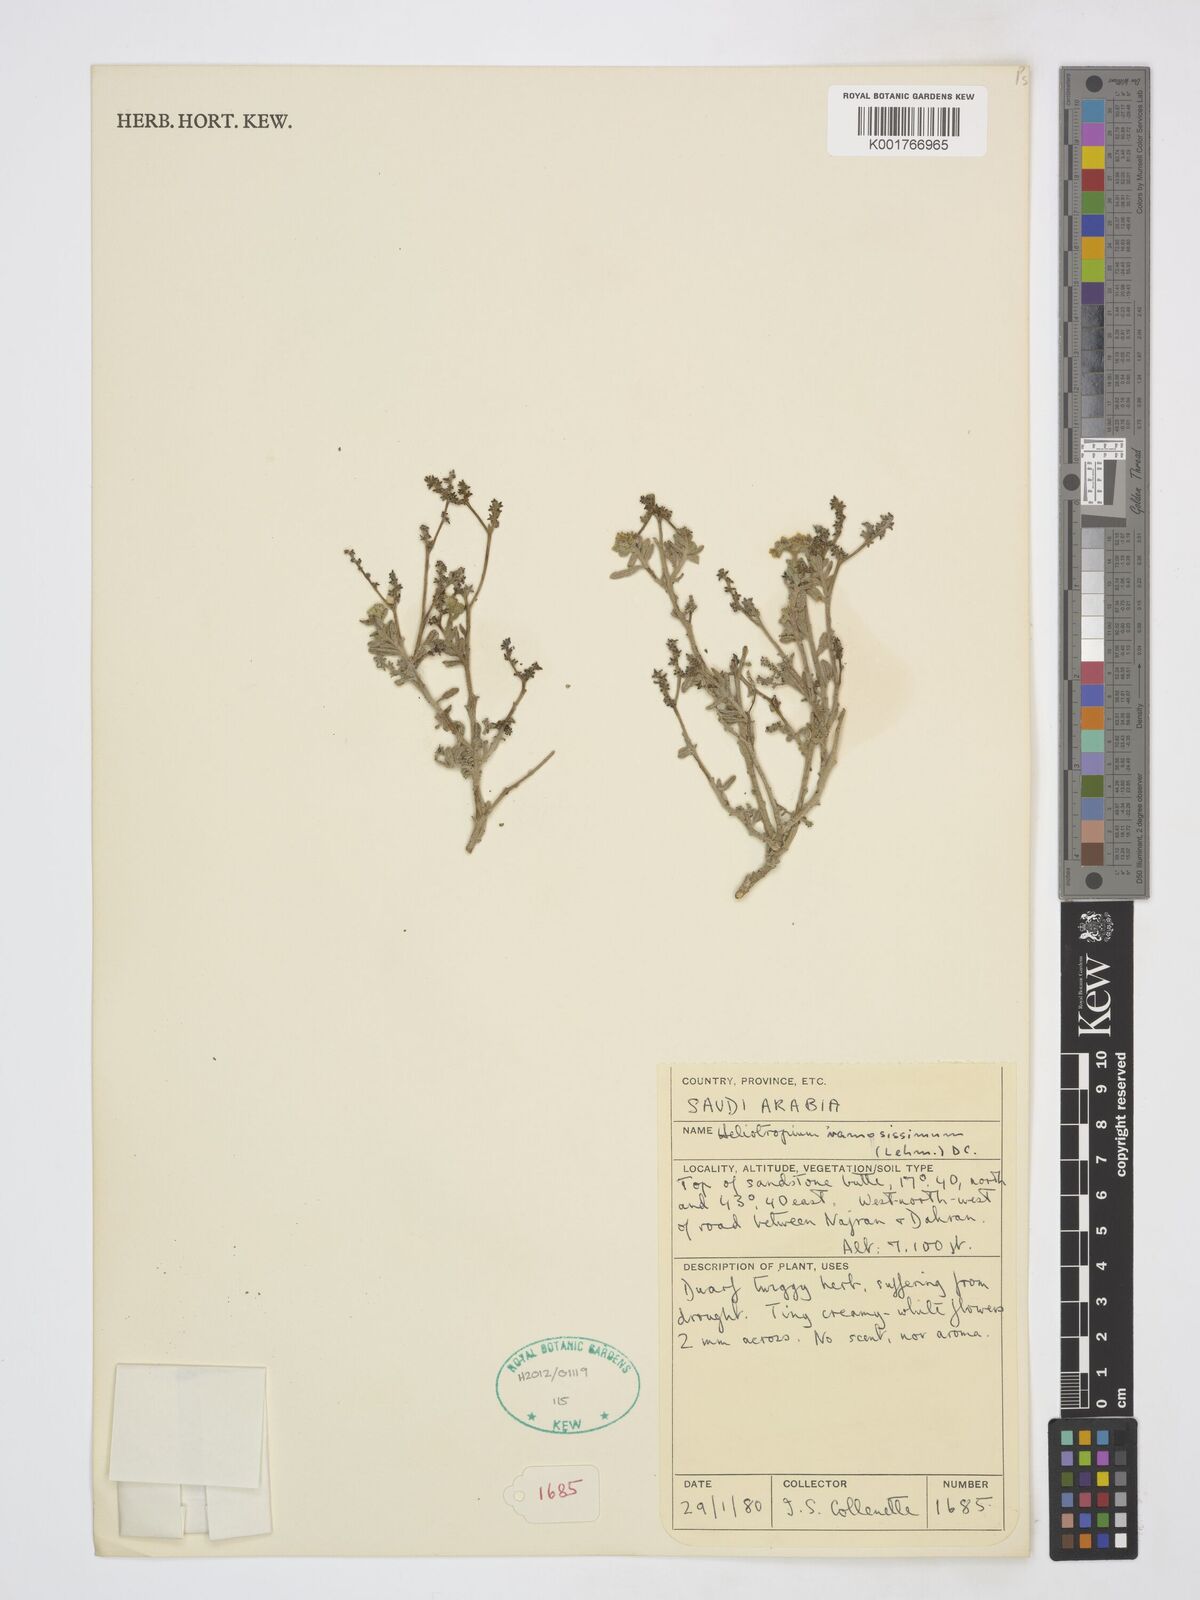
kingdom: Plantae
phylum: Tracheophyta
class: Magnoliopsida
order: Boraginales
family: Heliotropiaceae
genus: Heliotropium
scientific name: Heliotropium ramosissimum
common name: Wavy heliotrope
